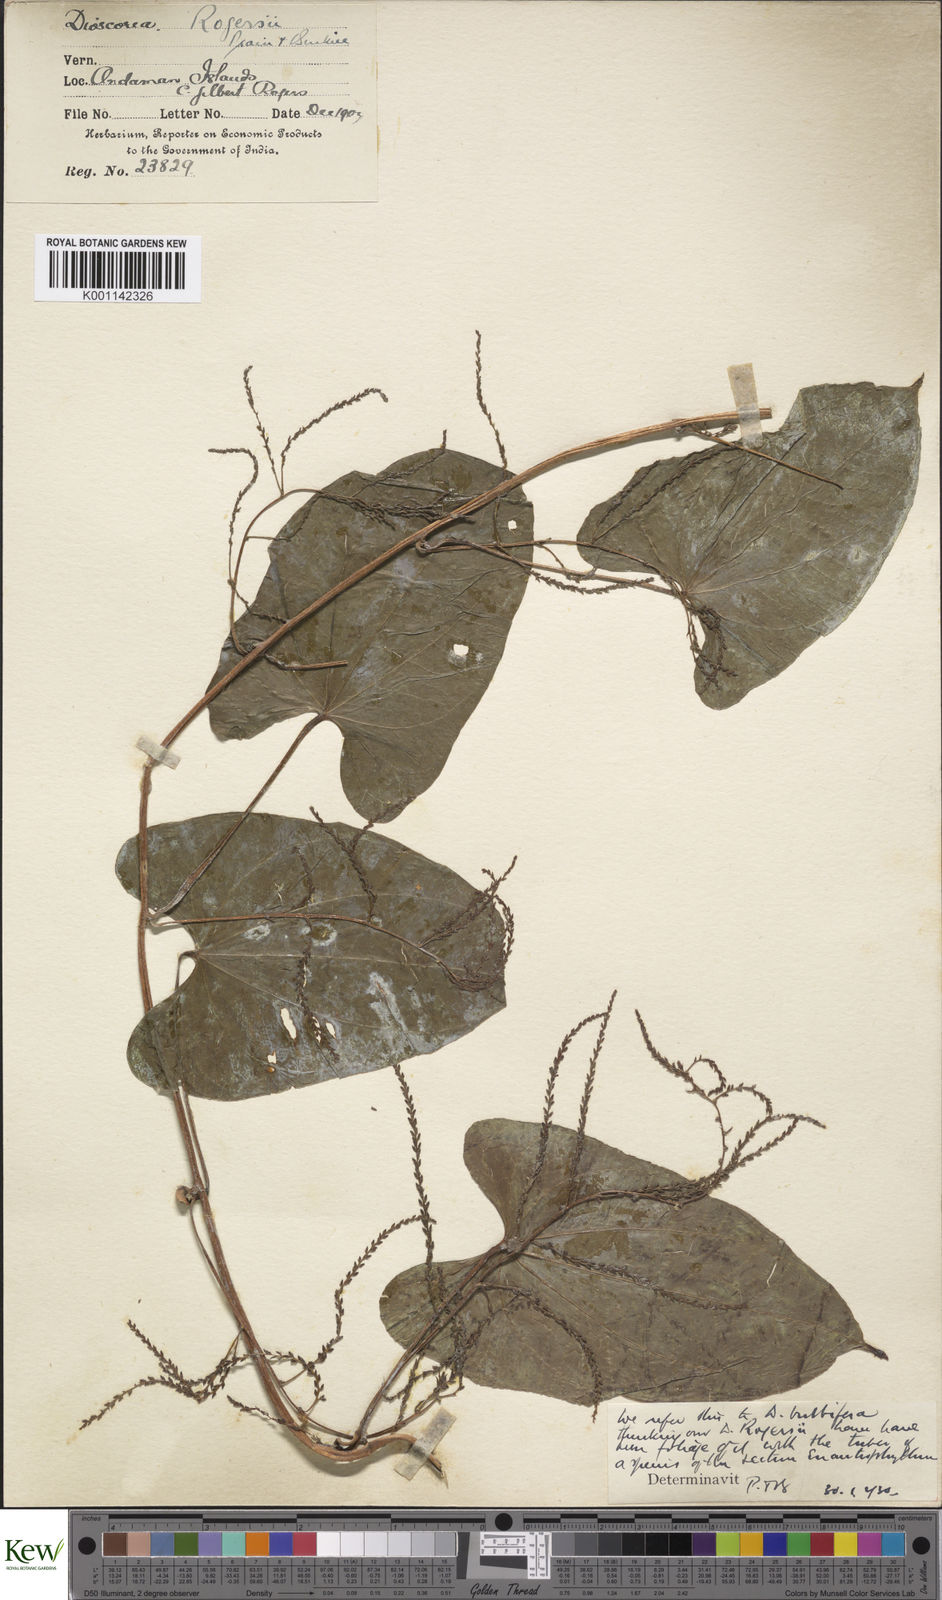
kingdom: Plantae
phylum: Tracheophyta
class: Liliopsida
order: Dioscoreales
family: Dioscoreaceae
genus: Dioscorea
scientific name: Dioscorea bulbifera
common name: Air yam
